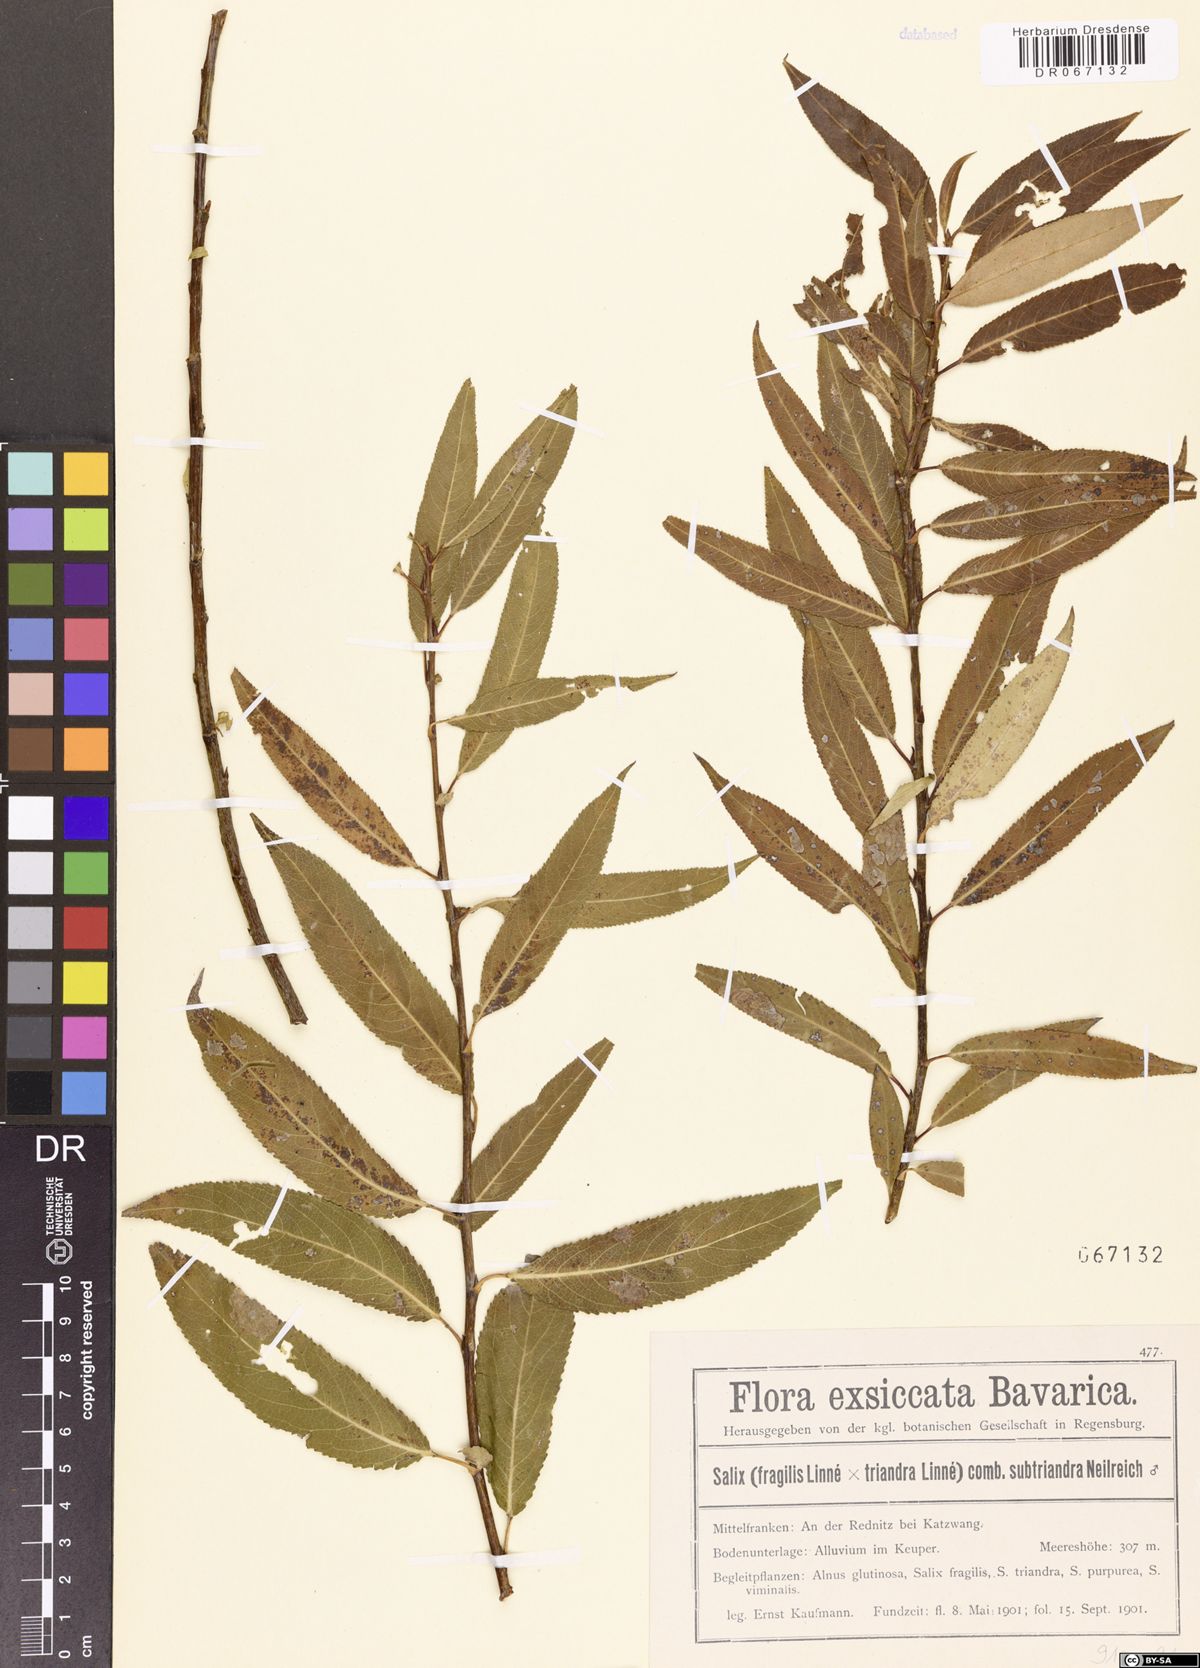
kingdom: Plantae
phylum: Tracheophyta
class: Magnoliopsida
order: Malpighiales
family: Salicaceae
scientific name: Salicaceae
